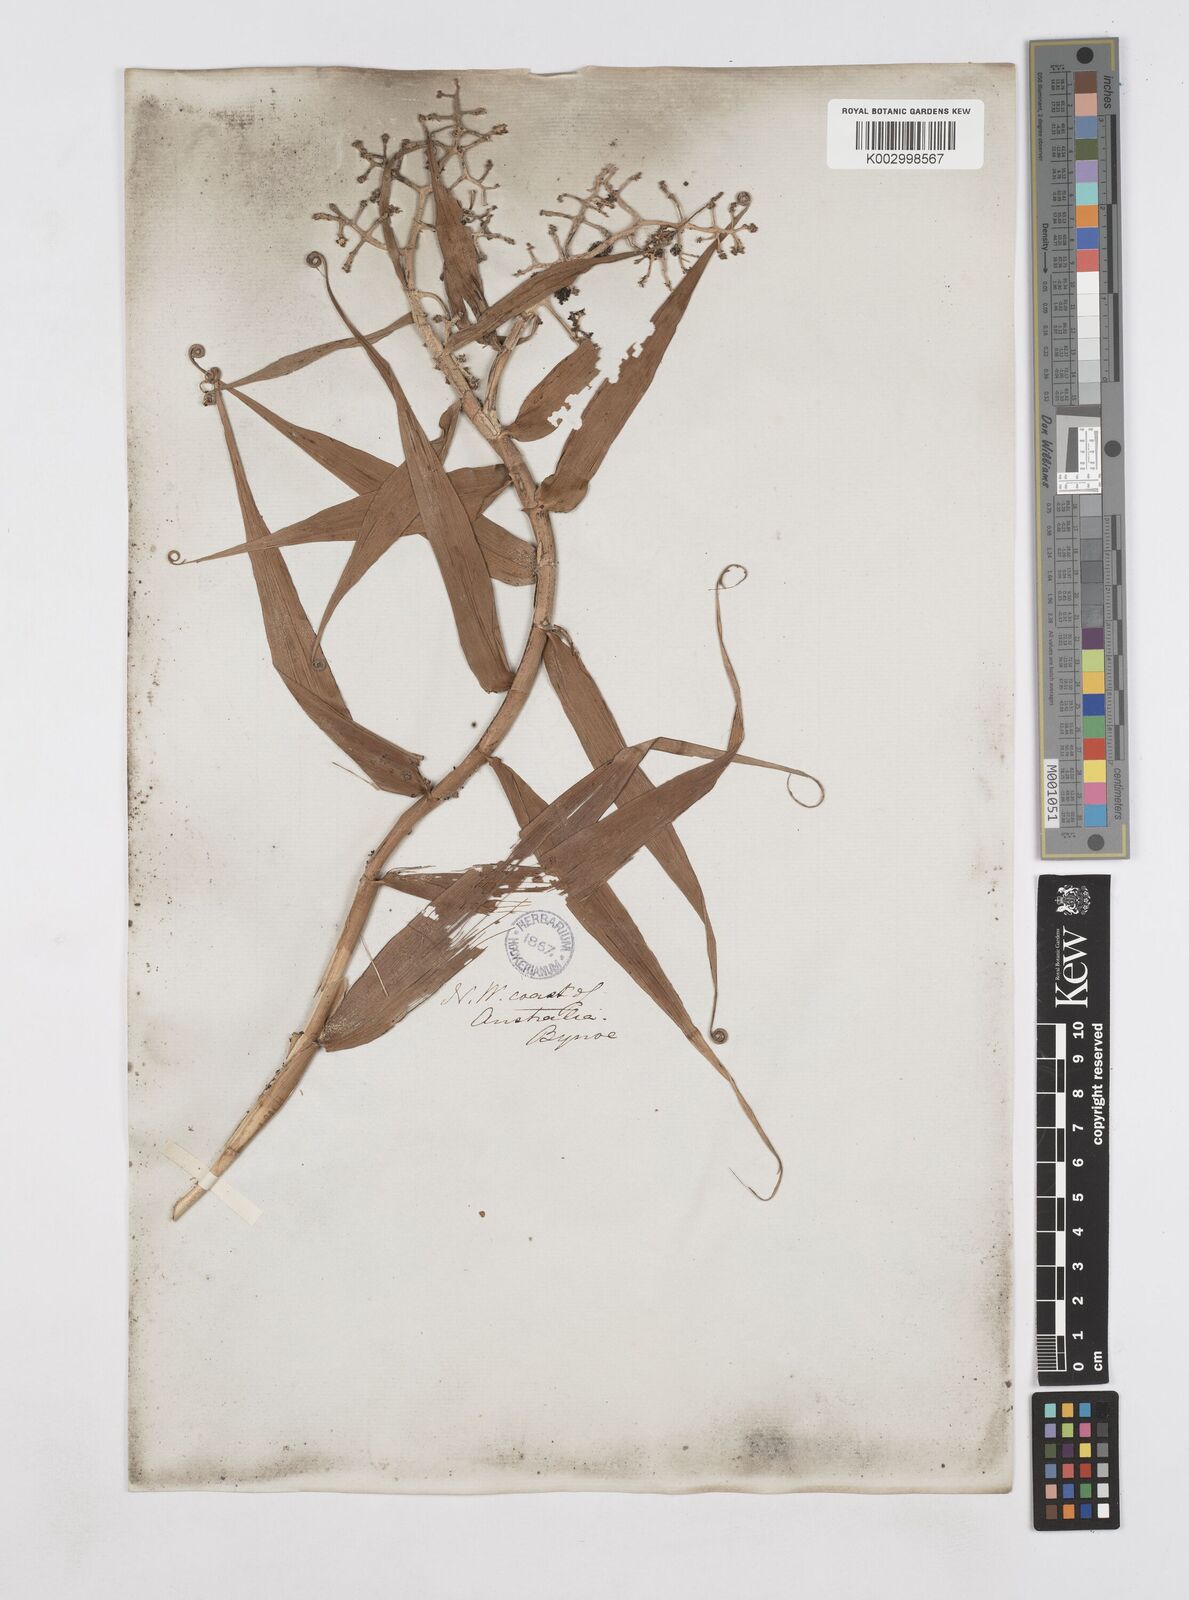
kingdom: Plantae
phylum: Tracheophyta
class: Liliopsida
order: Poales
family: Flagellariaceae
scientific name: Flagellariaceae
